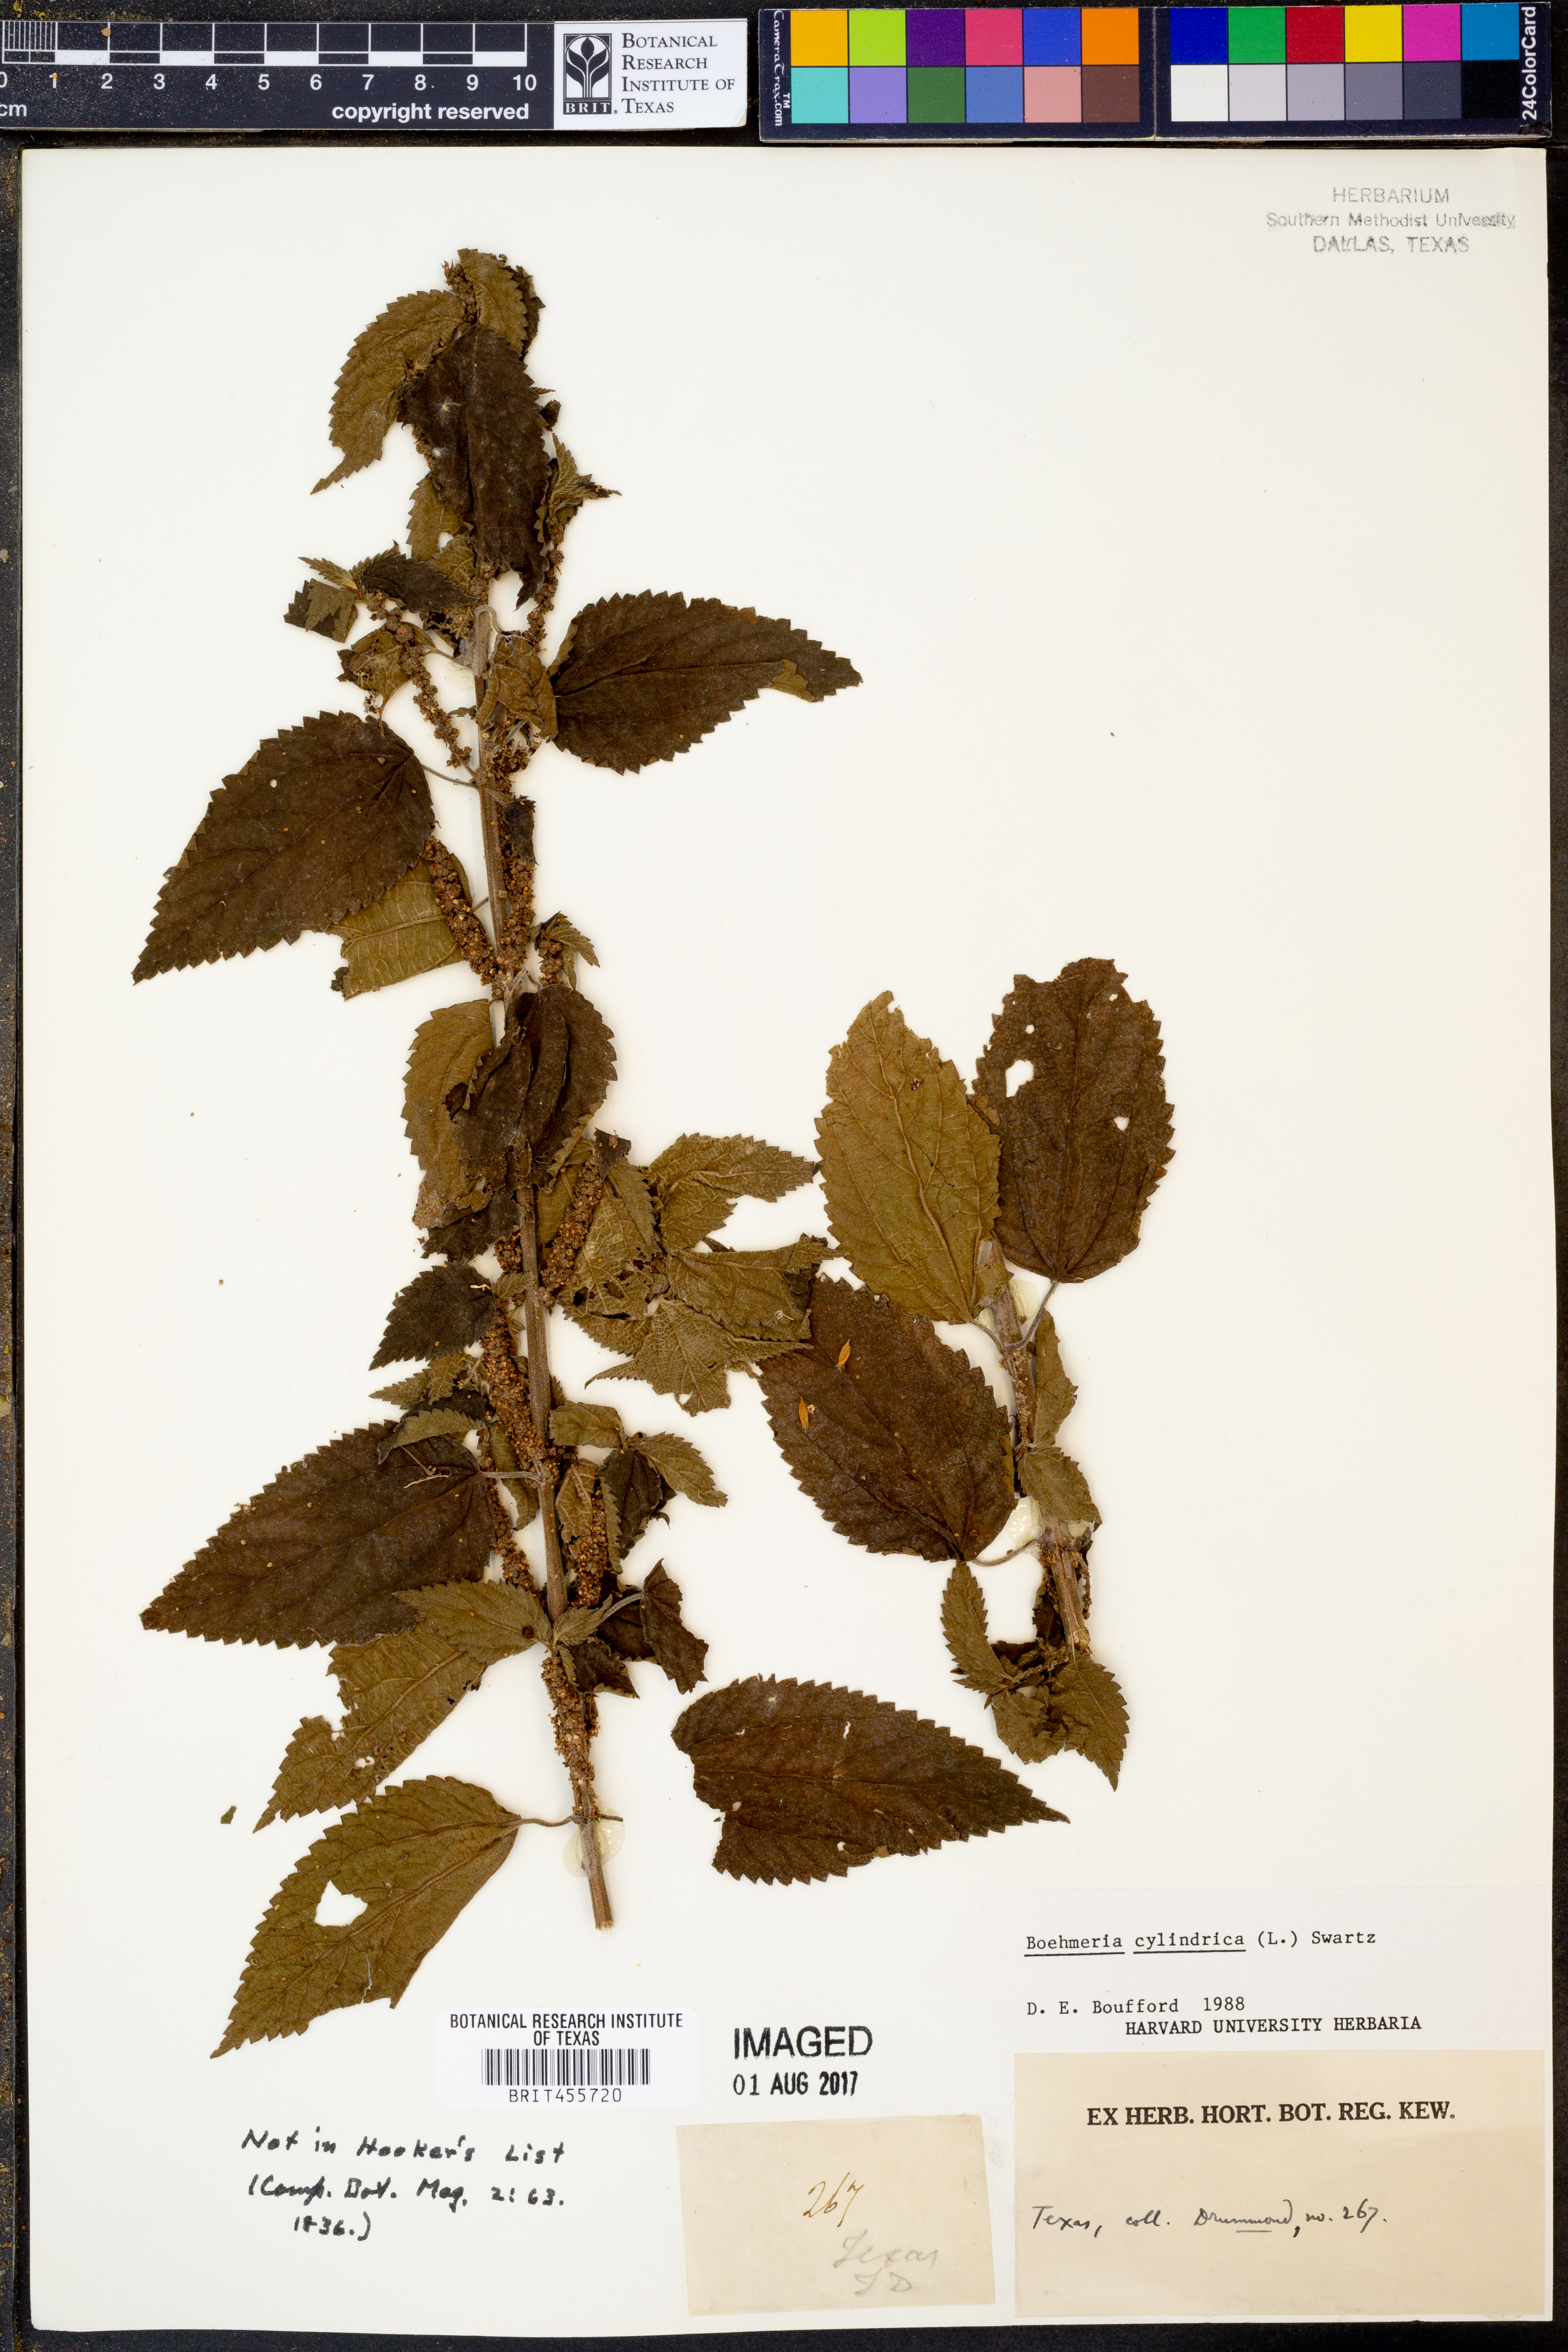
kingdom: Plantae
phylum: Tracheophyta
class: Magnoliopsida
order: Rosales
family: Urticaceae
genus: Boehmeria
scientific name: Boehmeria cylindrica
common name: Bog-hemp
